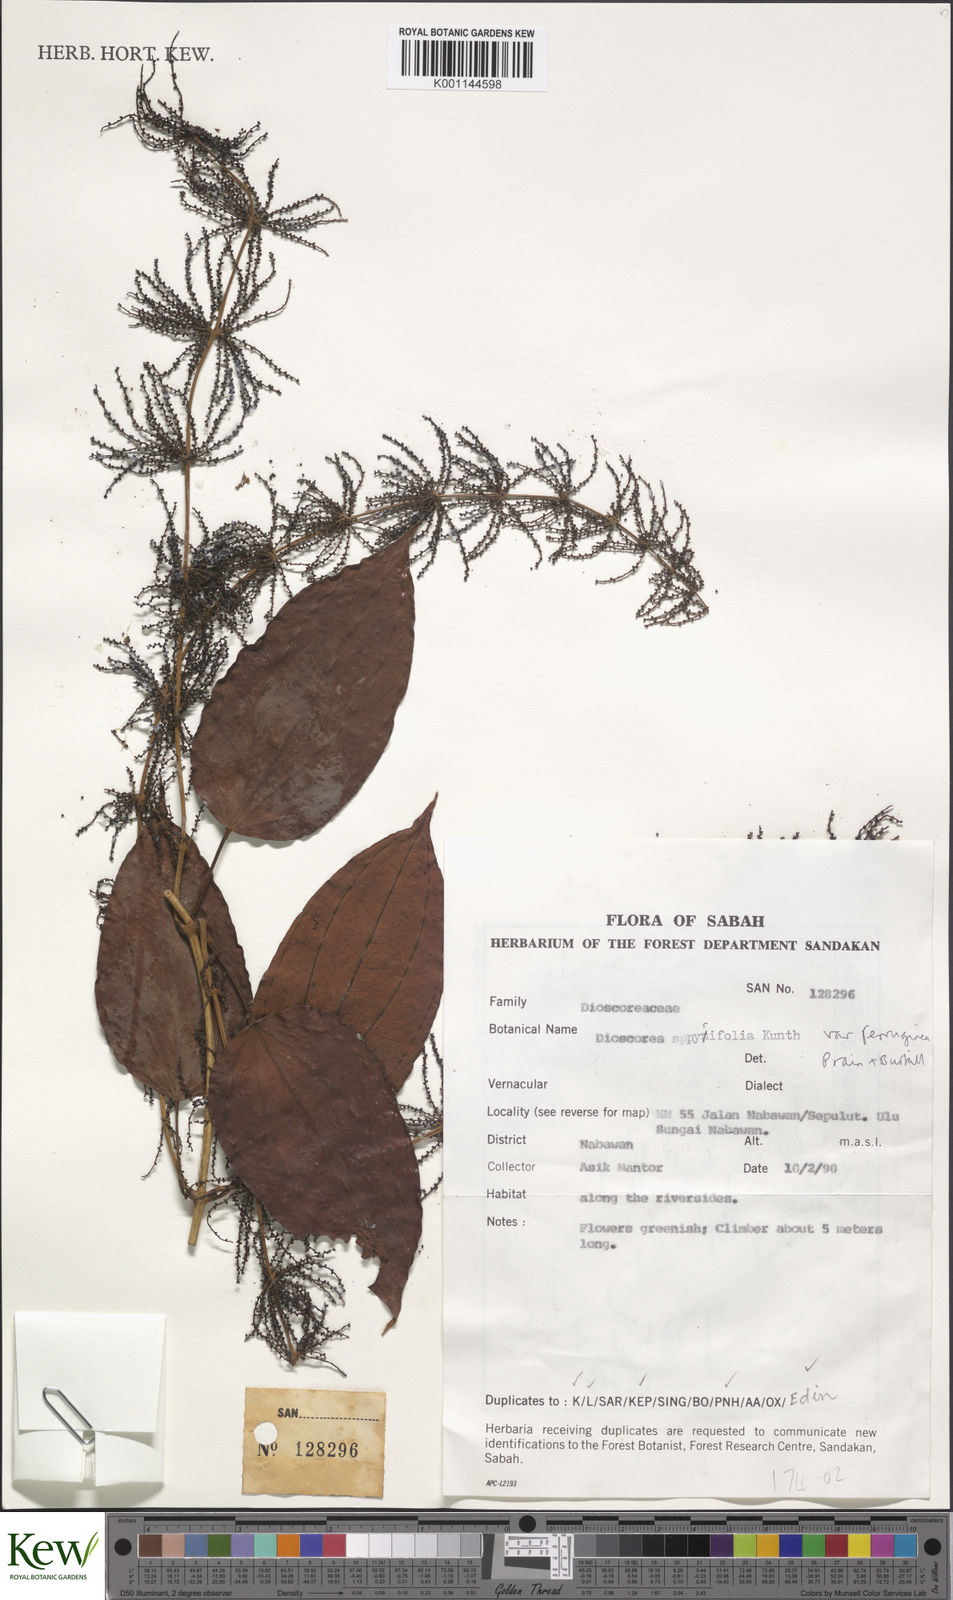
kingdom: Plantae
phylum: Tracheophyta
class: Liliopsida
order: Dioscoreales
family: Dioscoreaceae
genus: Dioscorea
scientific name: Dioscorea pyrifolia
